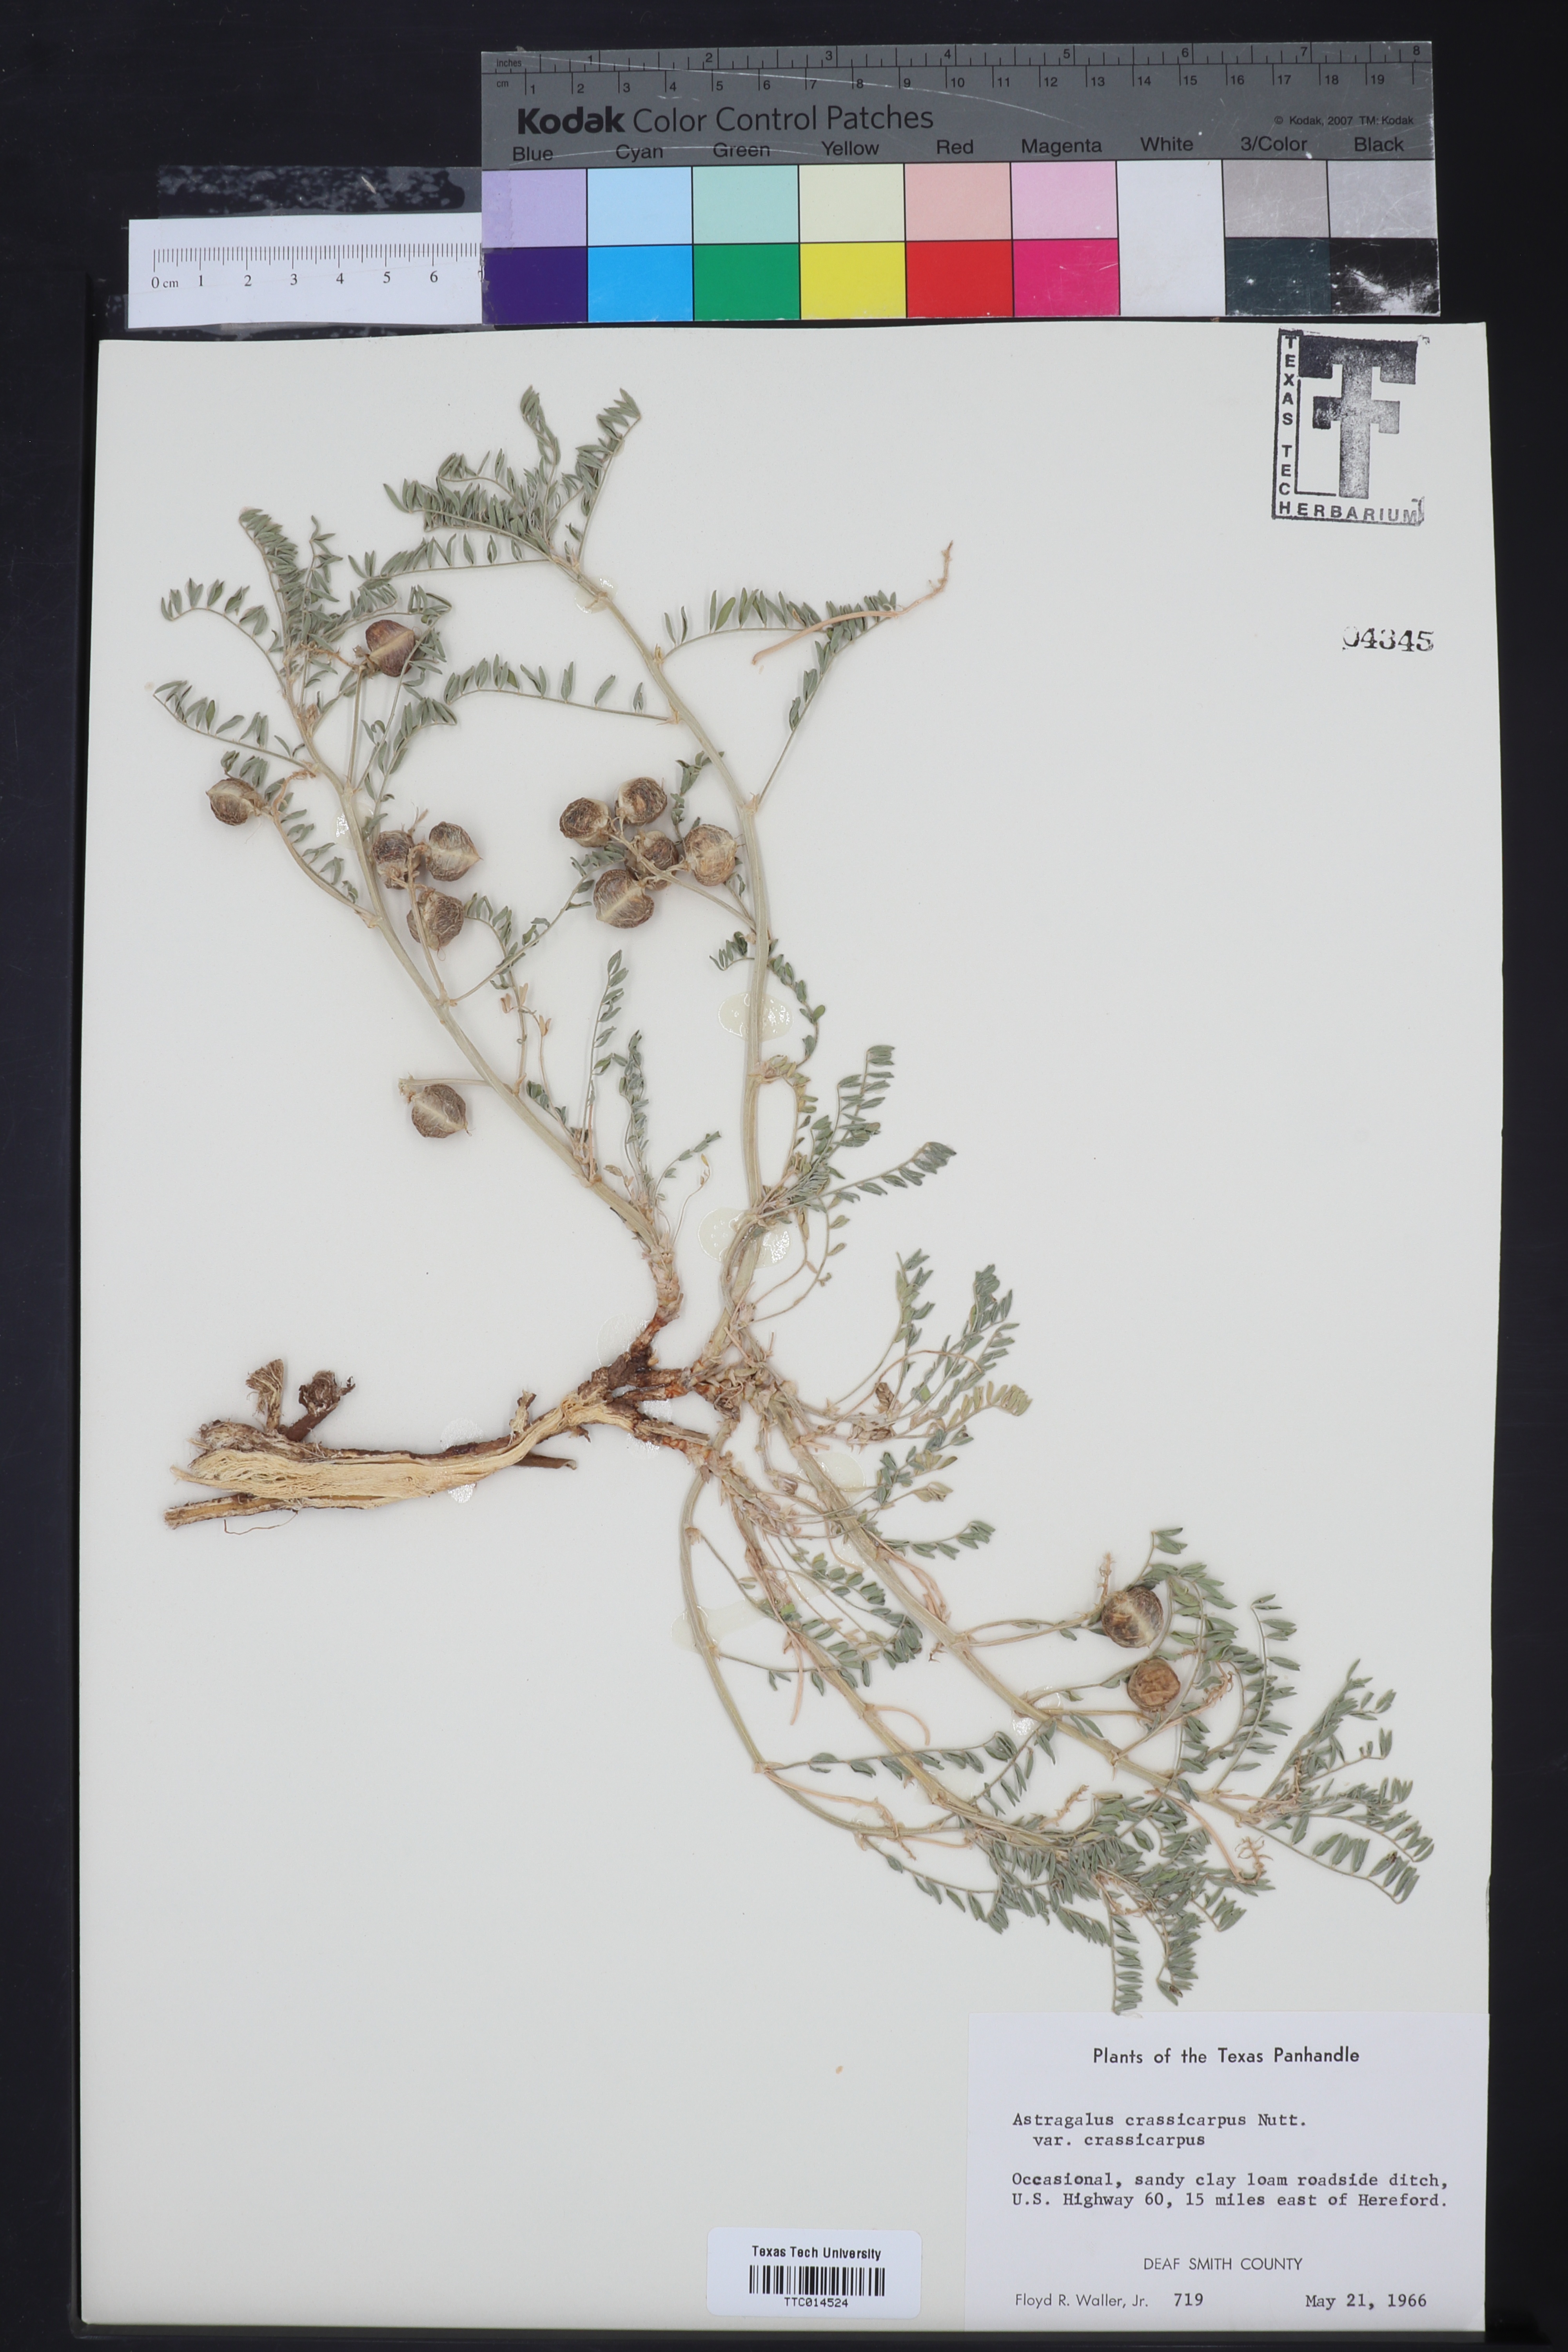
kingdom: Plantae
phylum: Tracheophyta
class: Magnoliopsida
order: Fabales
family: Fabaceae
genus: Astragalus
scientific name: Astragalus crassicarpus
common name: Ground-plum milk-vetch
